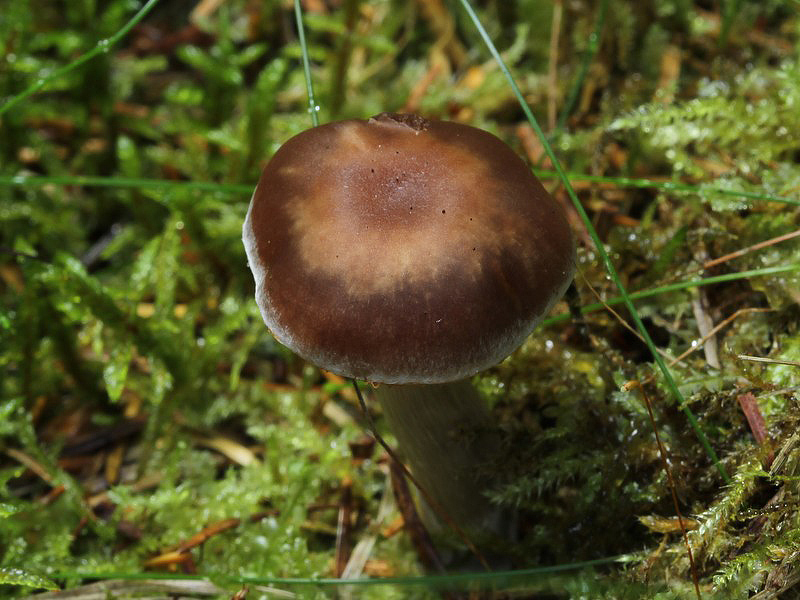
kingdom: Fungi
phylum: Basidiomycota
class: Agaricomycetes
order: Agaricales
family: Cortinariaceae
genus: Cortinarius
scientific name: Cortinarius kauffmanianus
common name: plantage-slørhat
